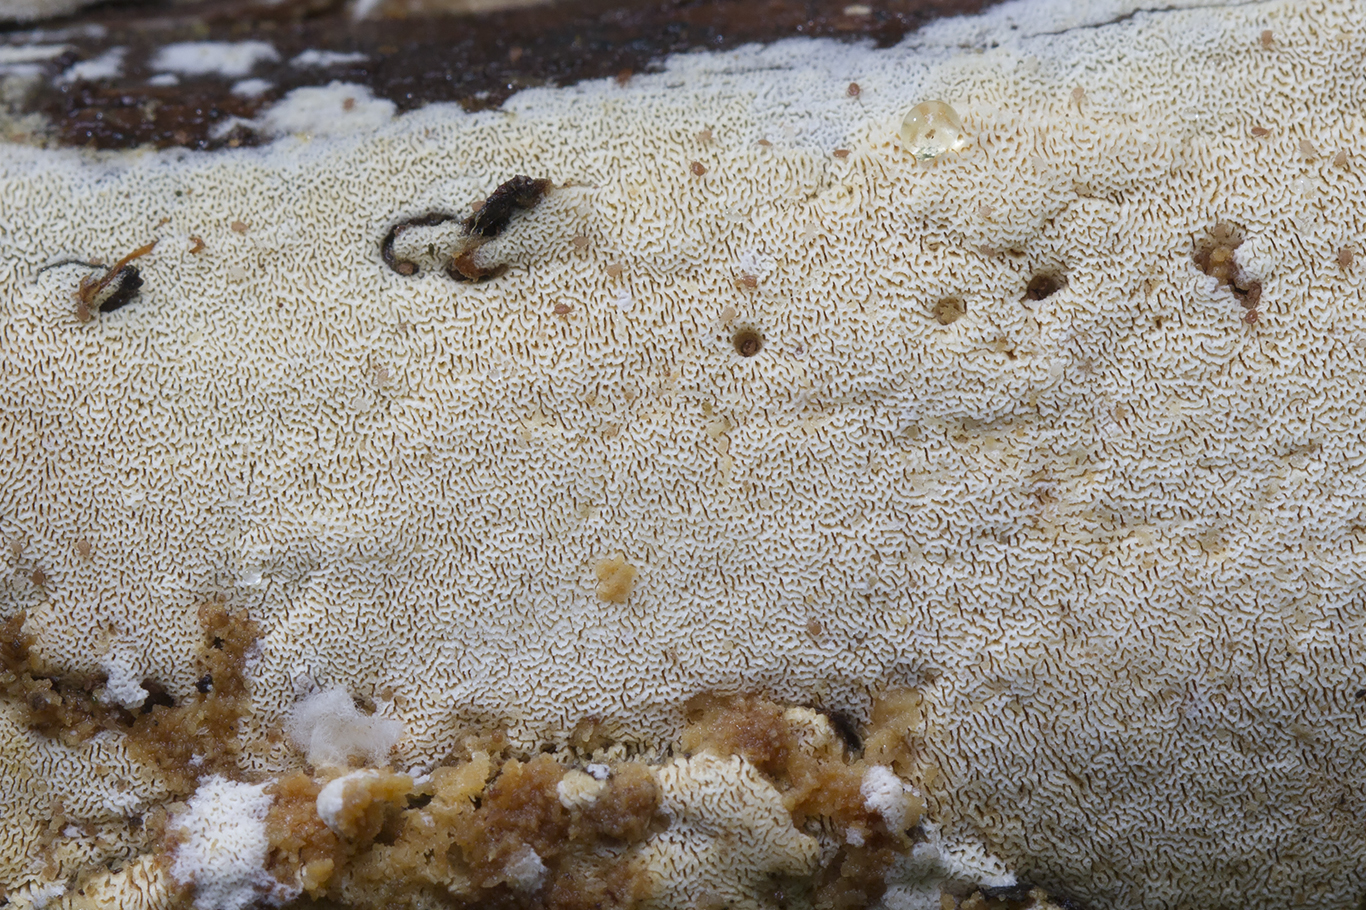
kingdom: Fungi
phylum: Basidiomycota
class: Agaricomycetes
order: Hymenochaetales
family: Schizoporaceae
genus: Xylodon
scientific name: Xylodon subtropicus
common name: labyrint-tandsvamp
